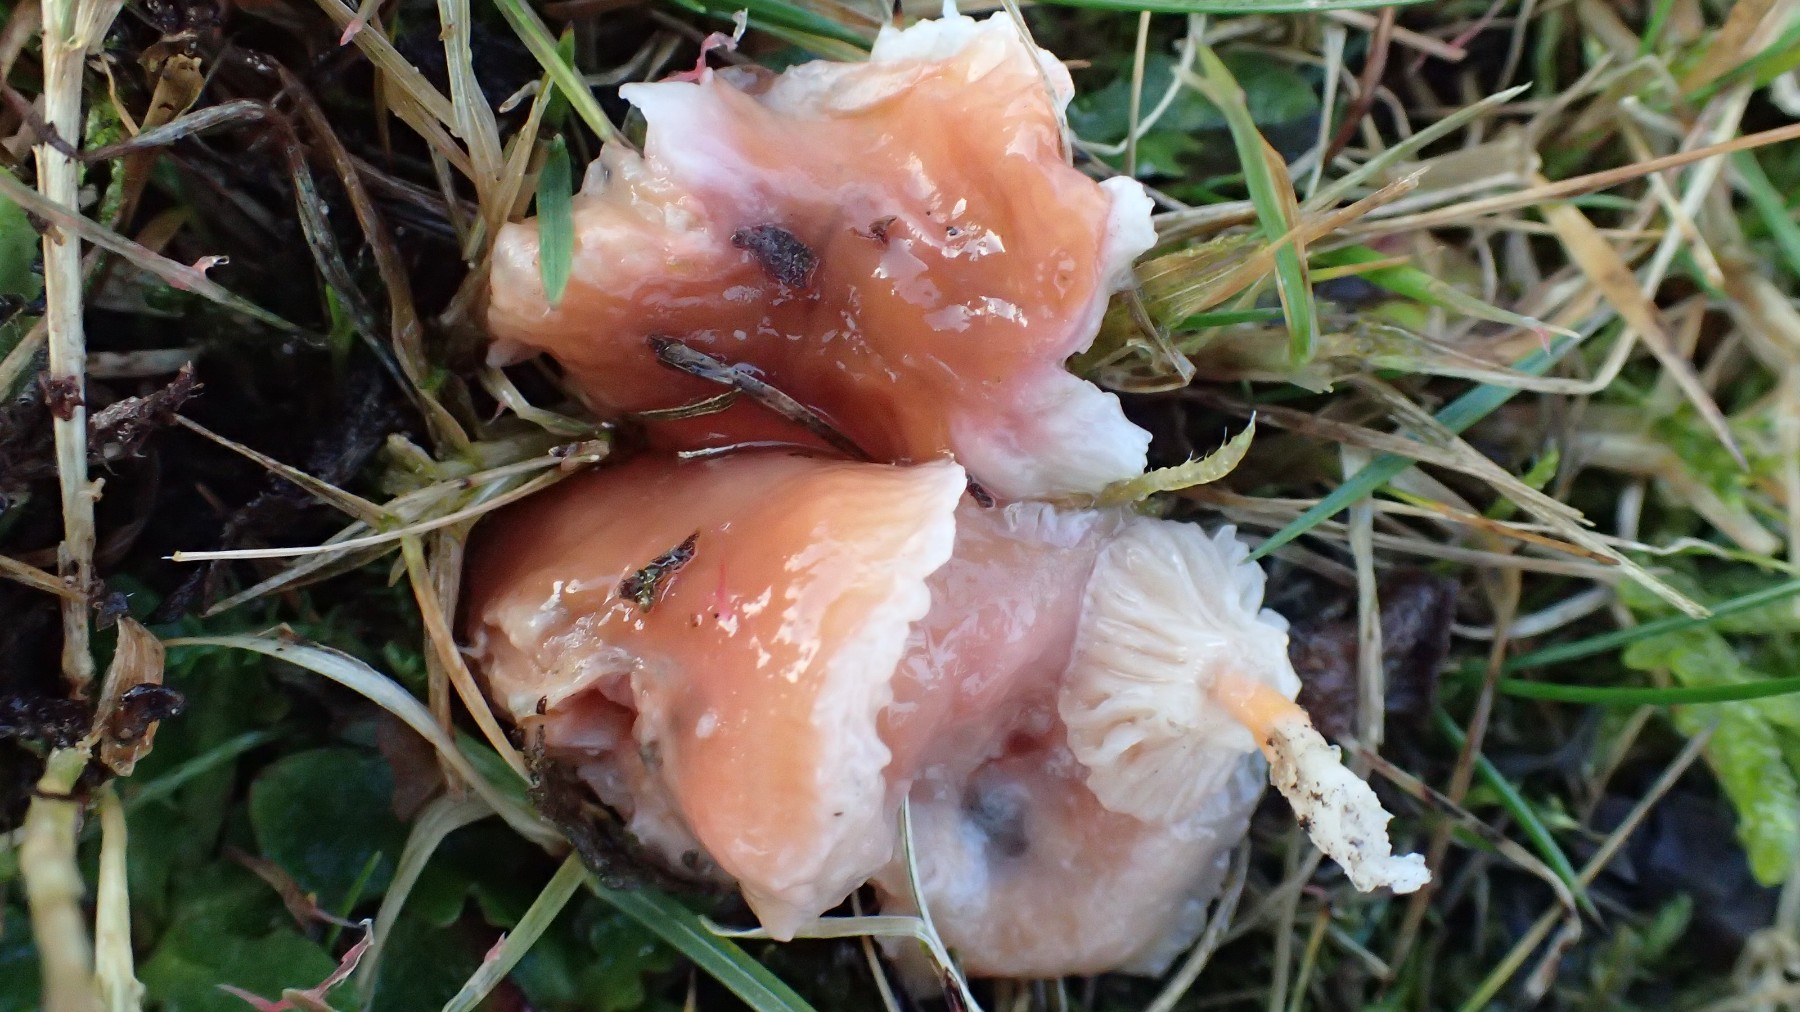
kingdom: Fungi
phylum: Basidiomycota
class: Agaricomycetes
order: Agaricales
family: Hygrophoraceae
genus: Gliophorus
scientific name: Gliophorus laetus
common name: brusk-vokshat
